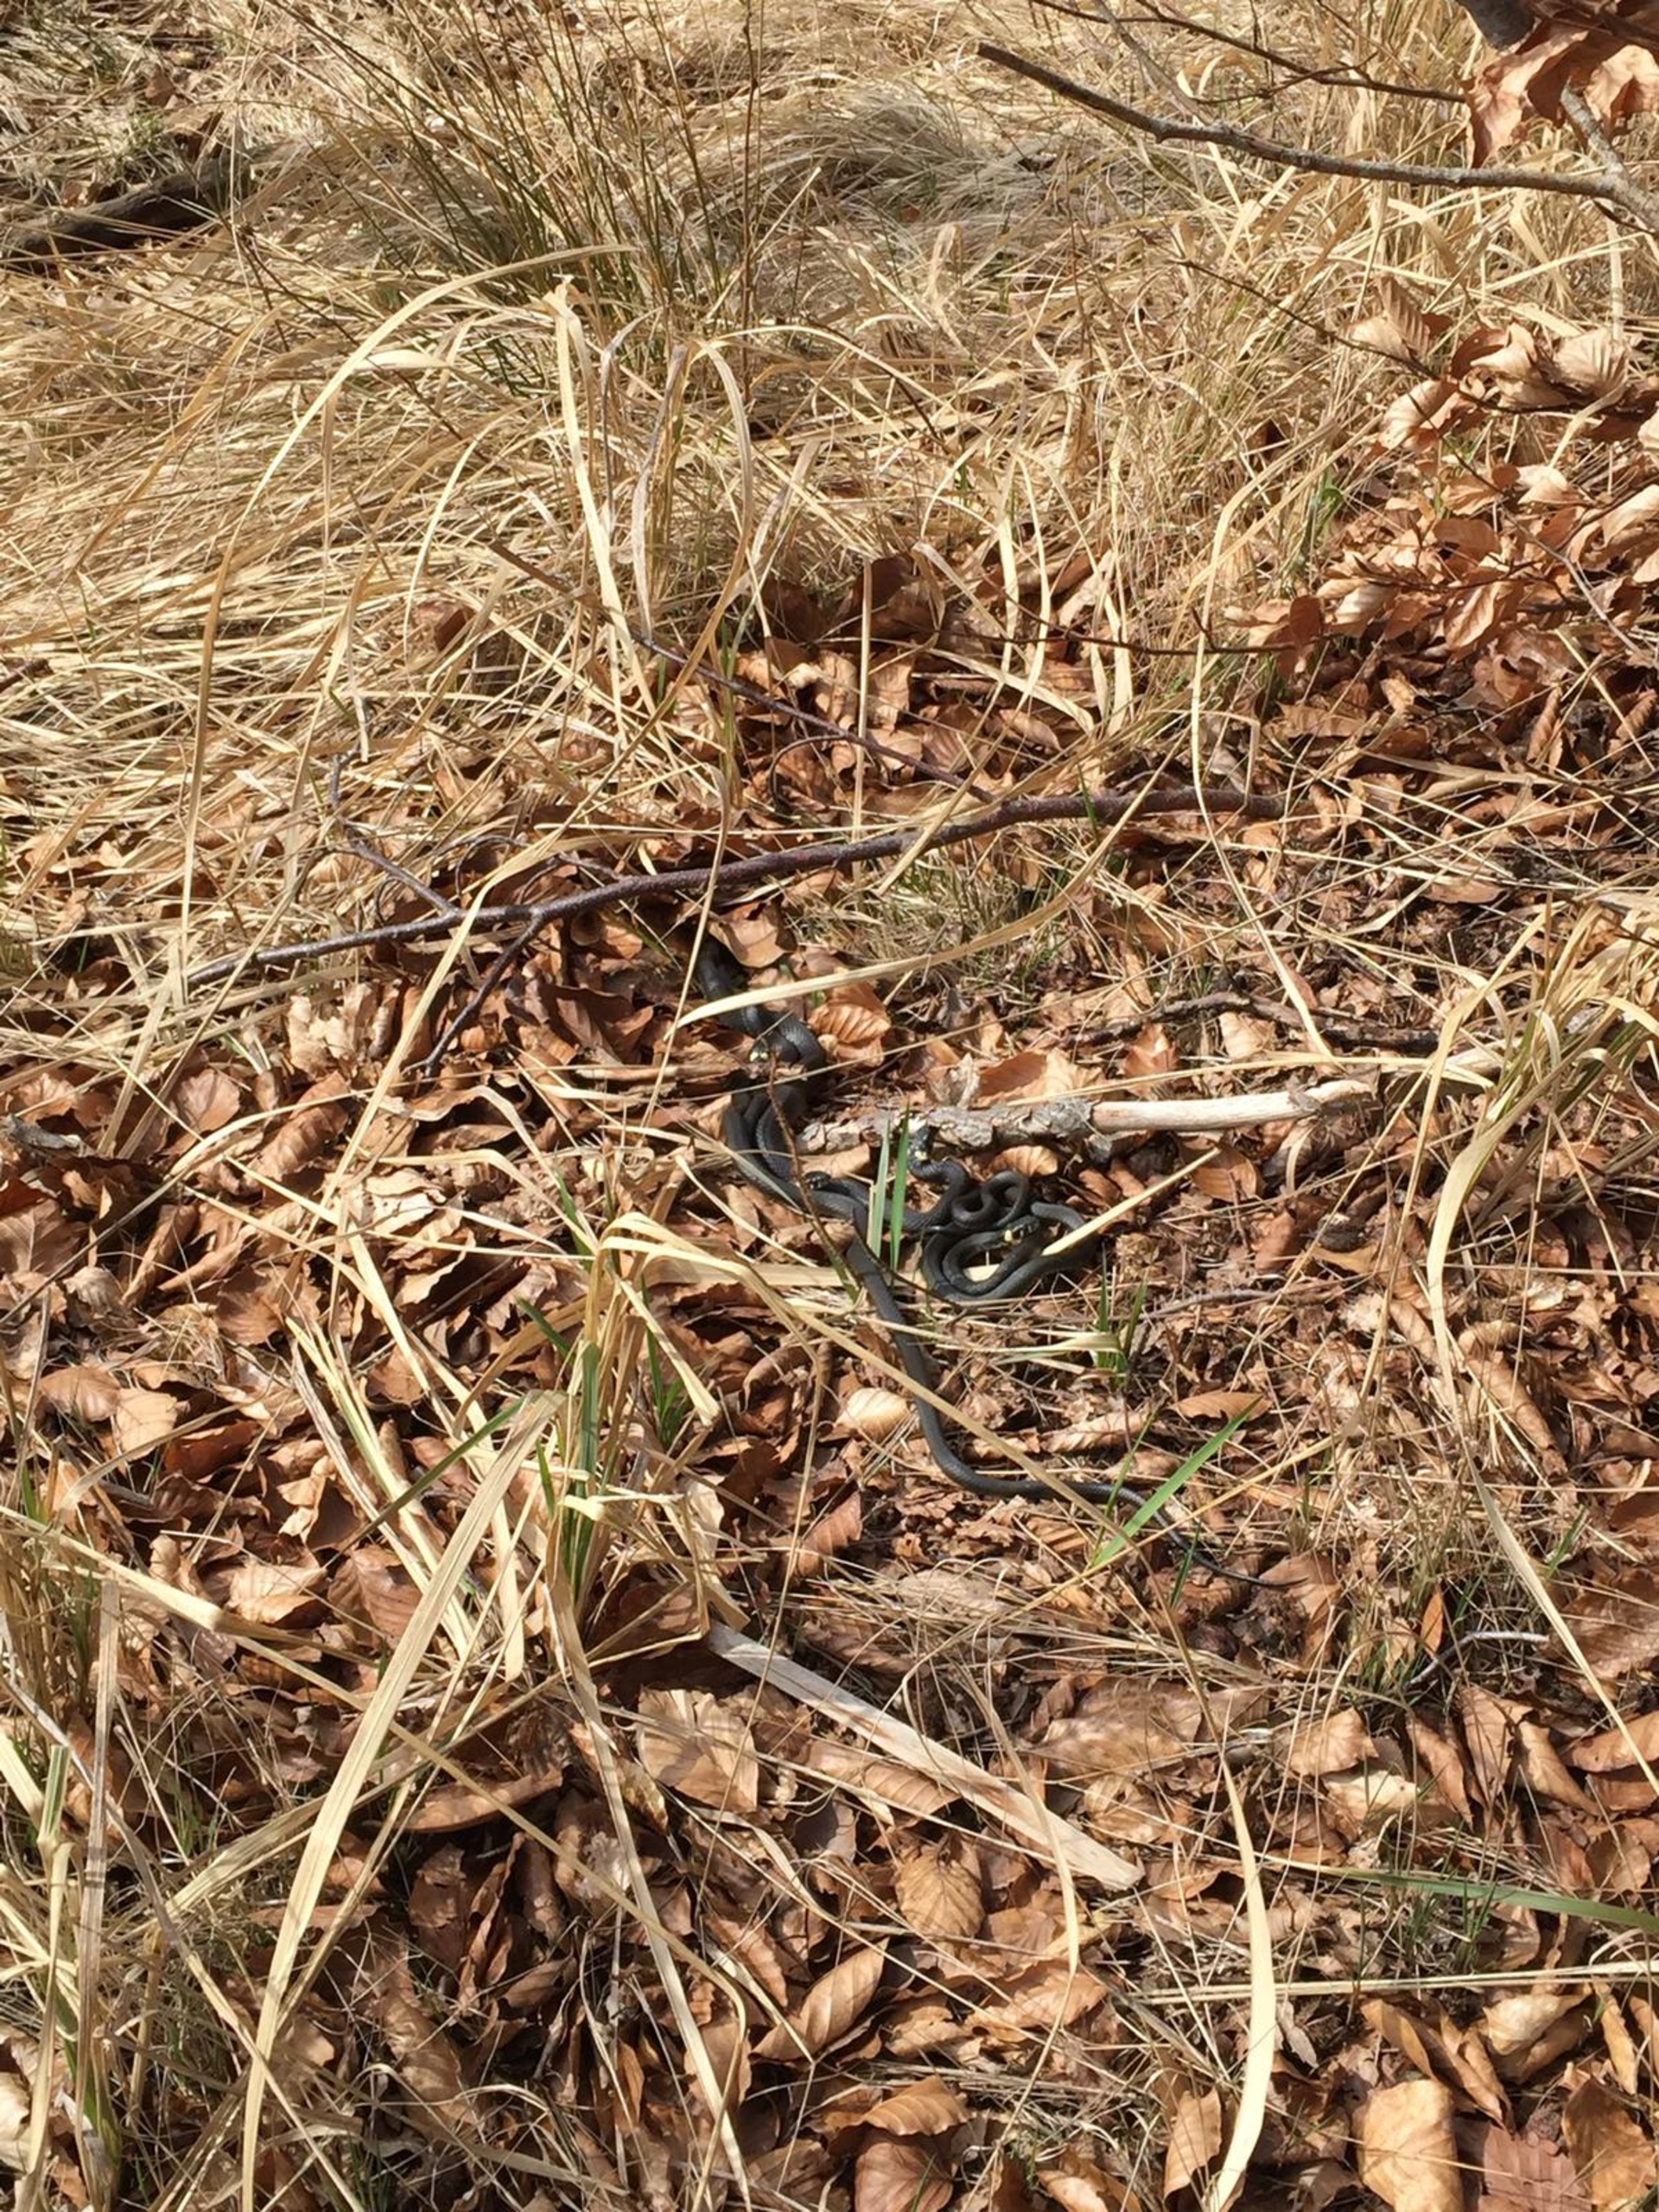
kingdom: Animalia
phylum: Chordata
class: Squamata
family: Colubridae
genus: Natrix
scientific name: Natrix natrix
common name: Snog
